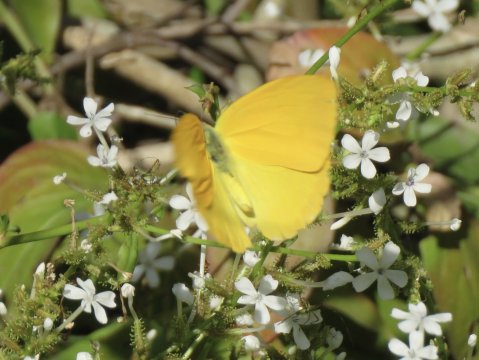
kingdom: Animalia
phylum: Arthropoda
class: Insecta
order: Lepidoptera
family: Pieridae
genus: Phoebis
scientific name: Phoebis agarithe
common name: Large Orange Sulphur
